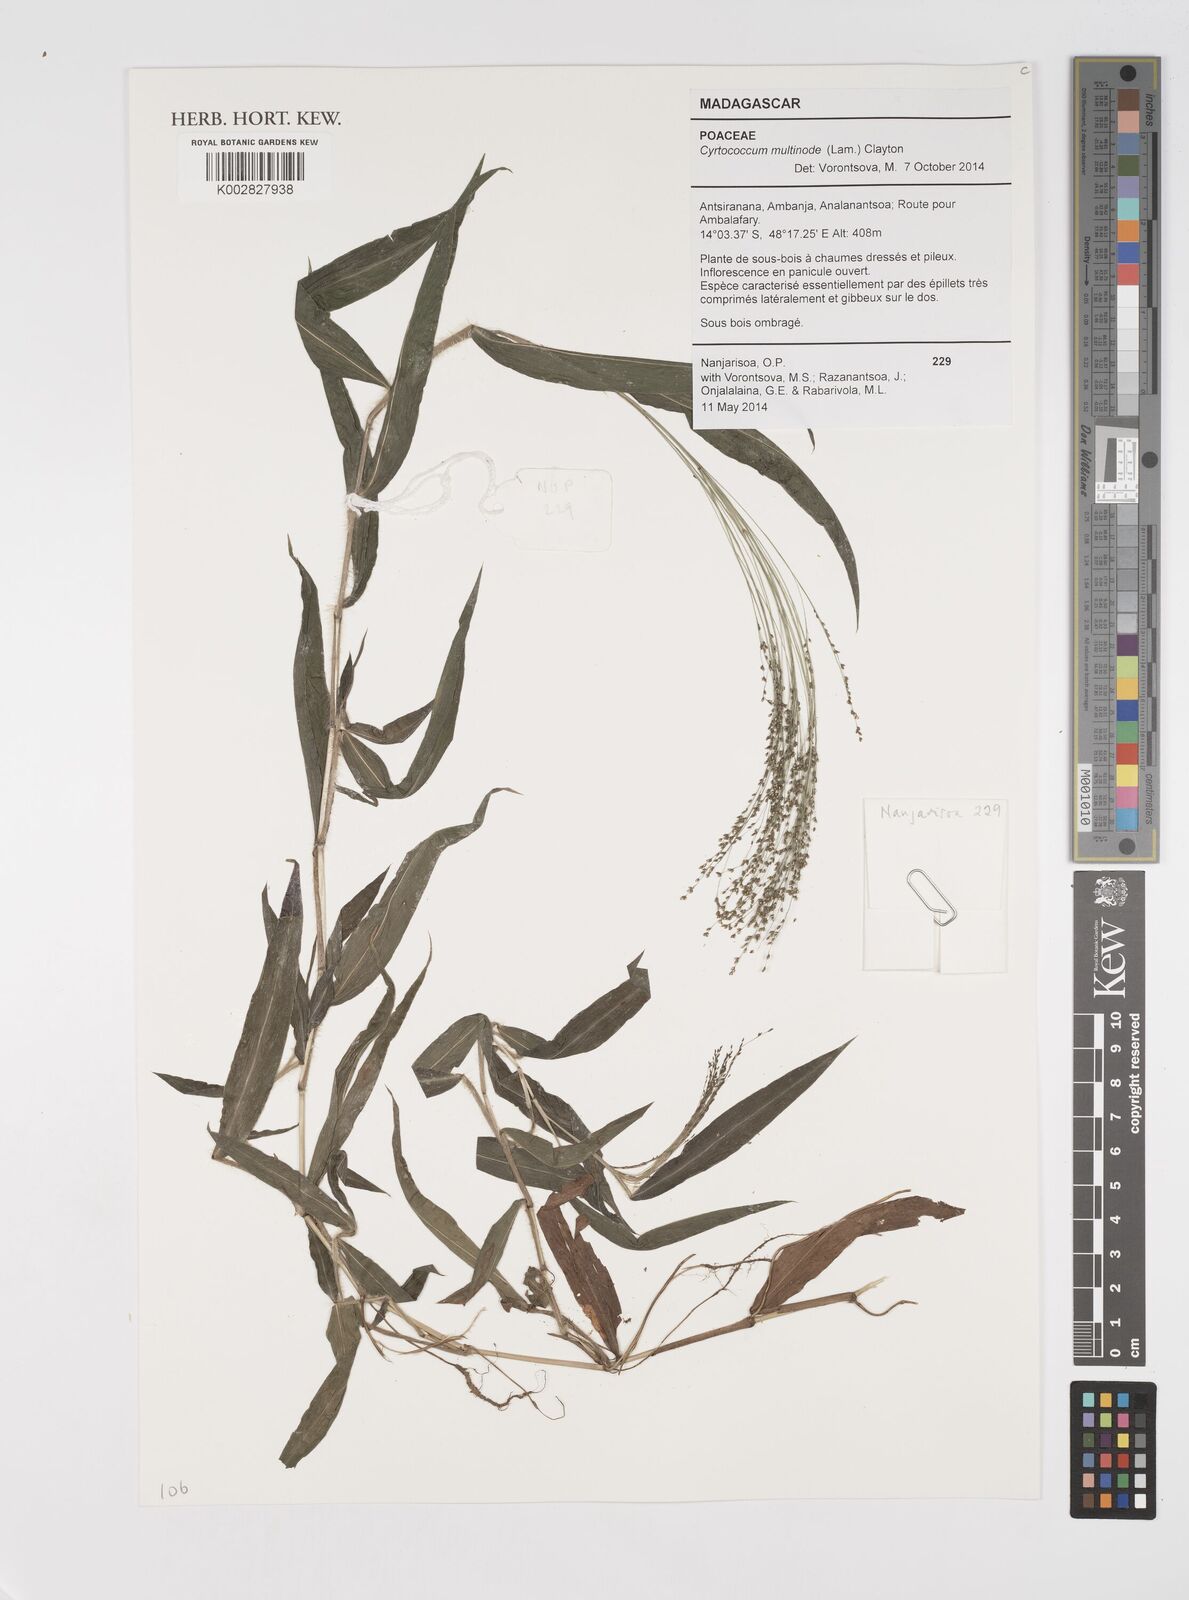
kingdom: Plantae
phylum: Tracheophyta
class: Liliopsida
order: Poales
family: Poaceae
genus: Cyrtococcum
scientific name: Cyrtococcum multinode
